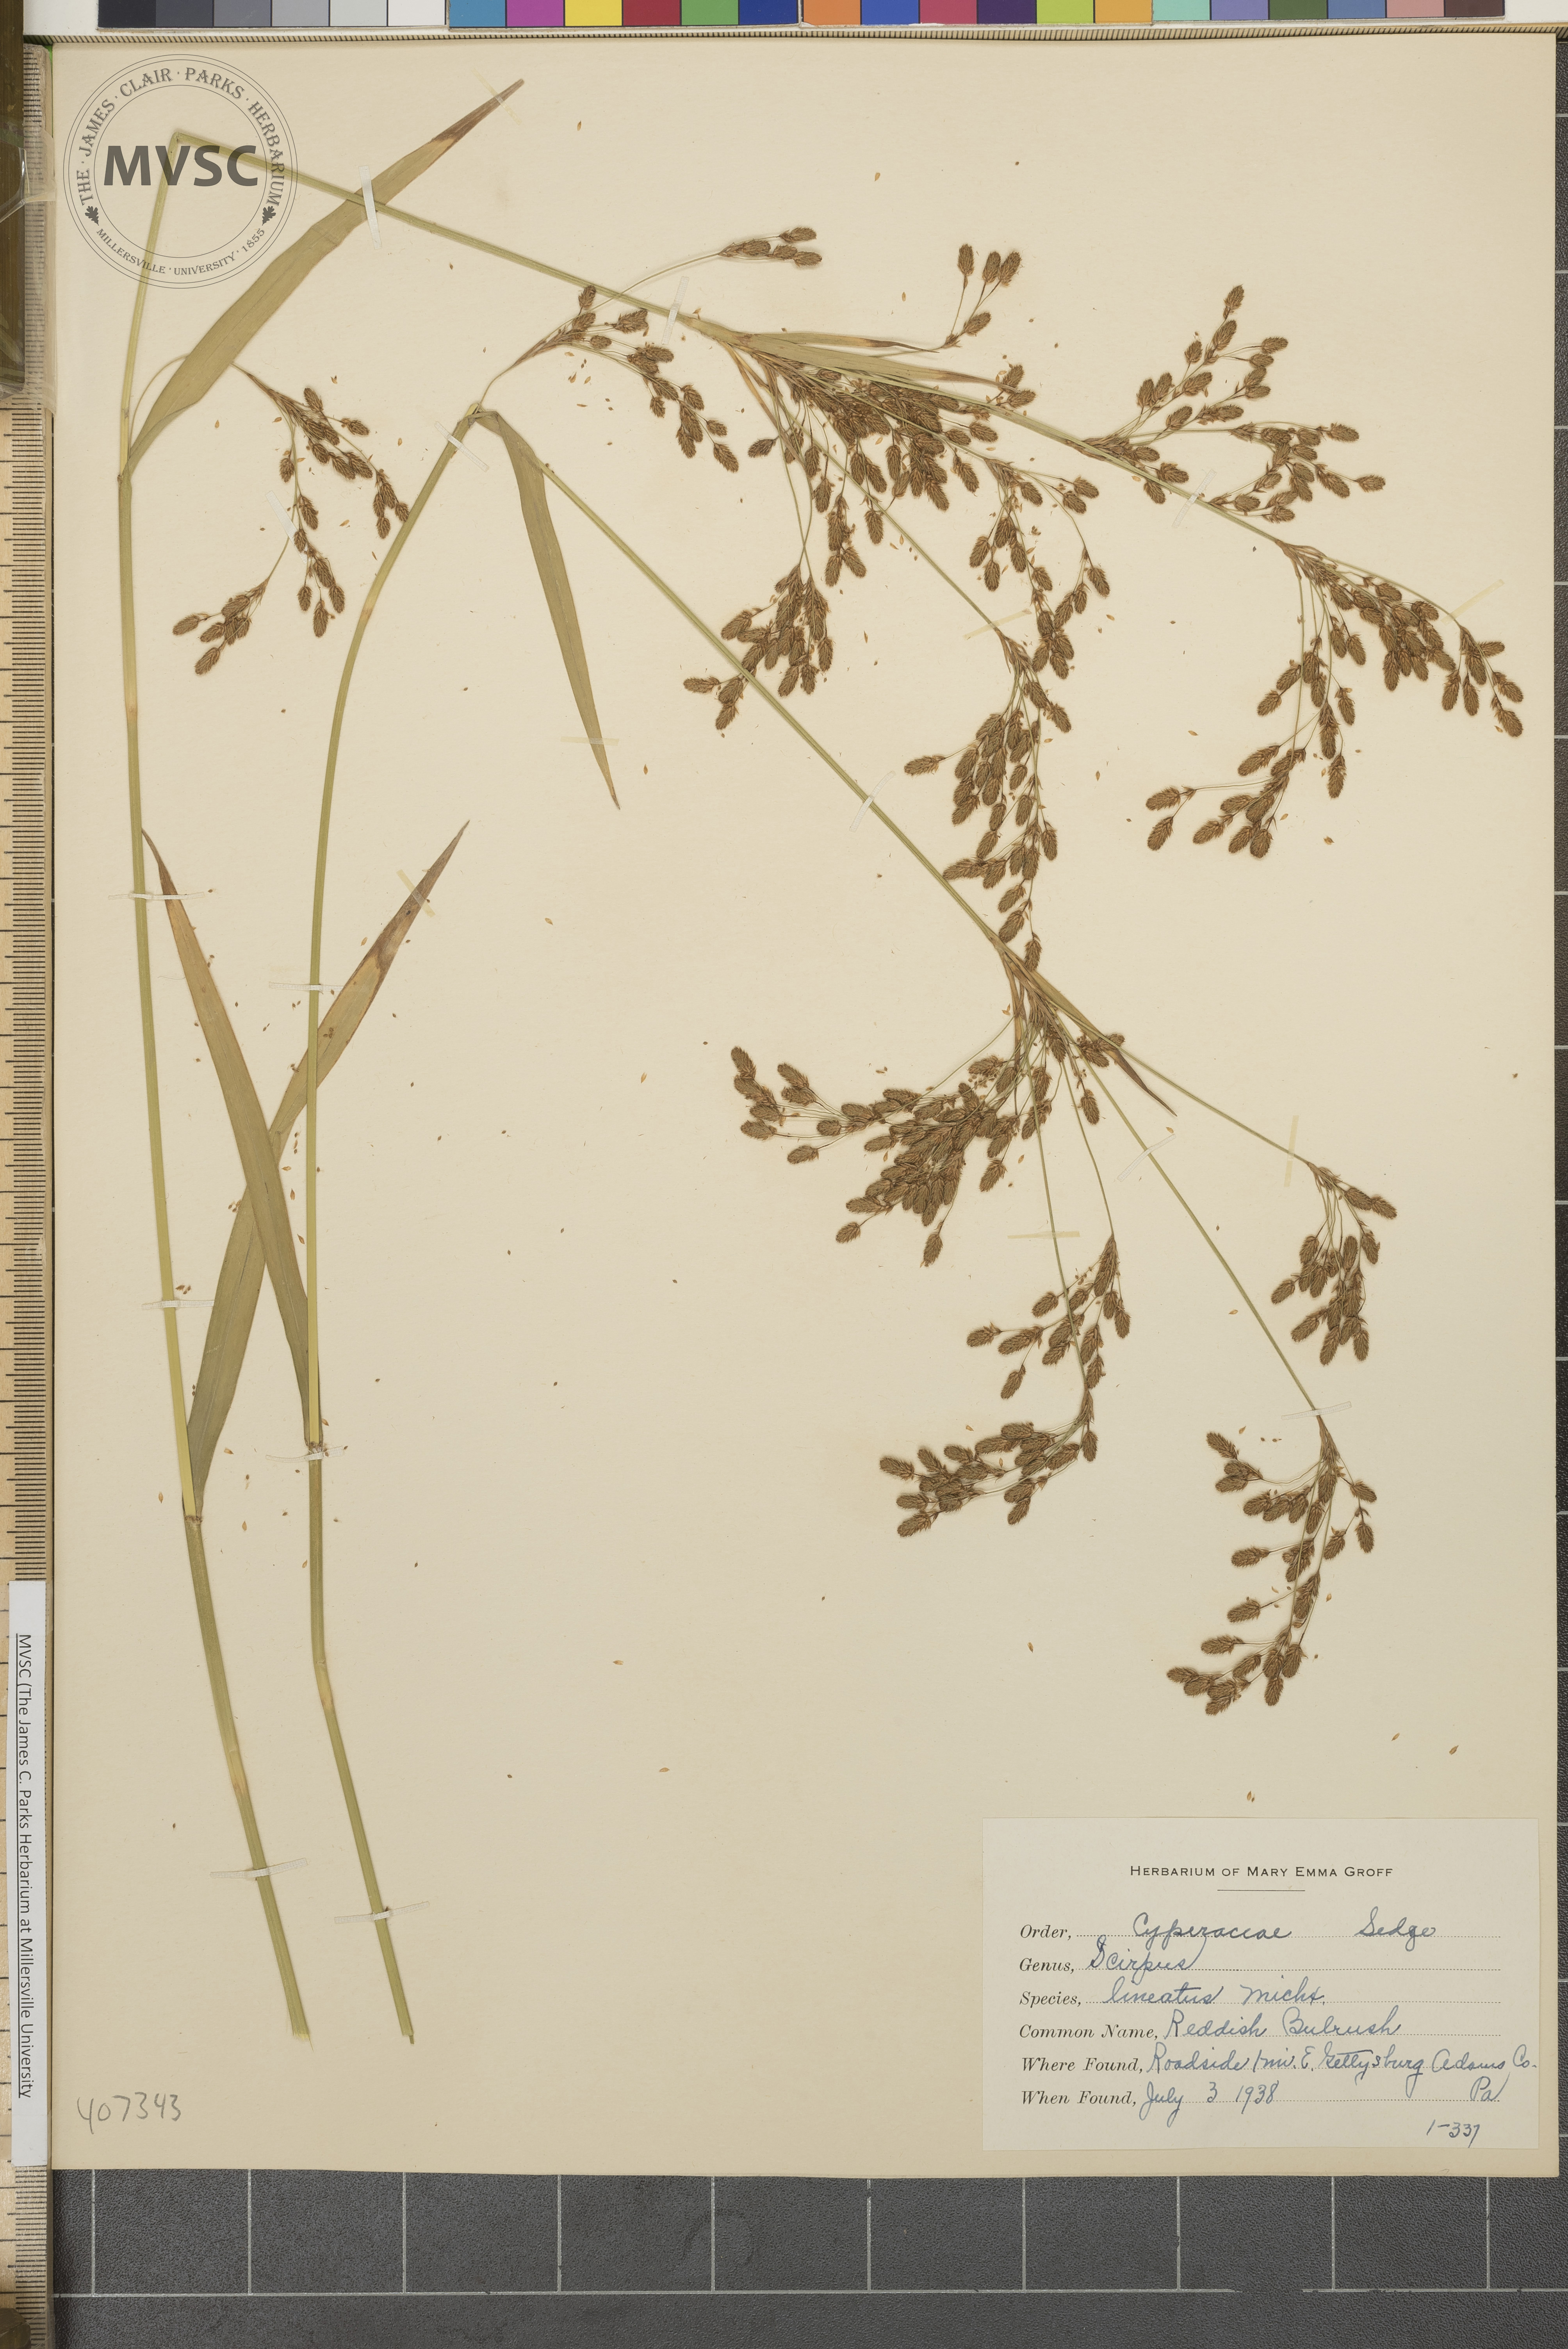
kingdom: Plantae
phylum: Tracheophyta
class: Liliopsida
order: Poales
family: Cyperaceae
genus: Scirpus
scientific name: Scirpus pendulus
